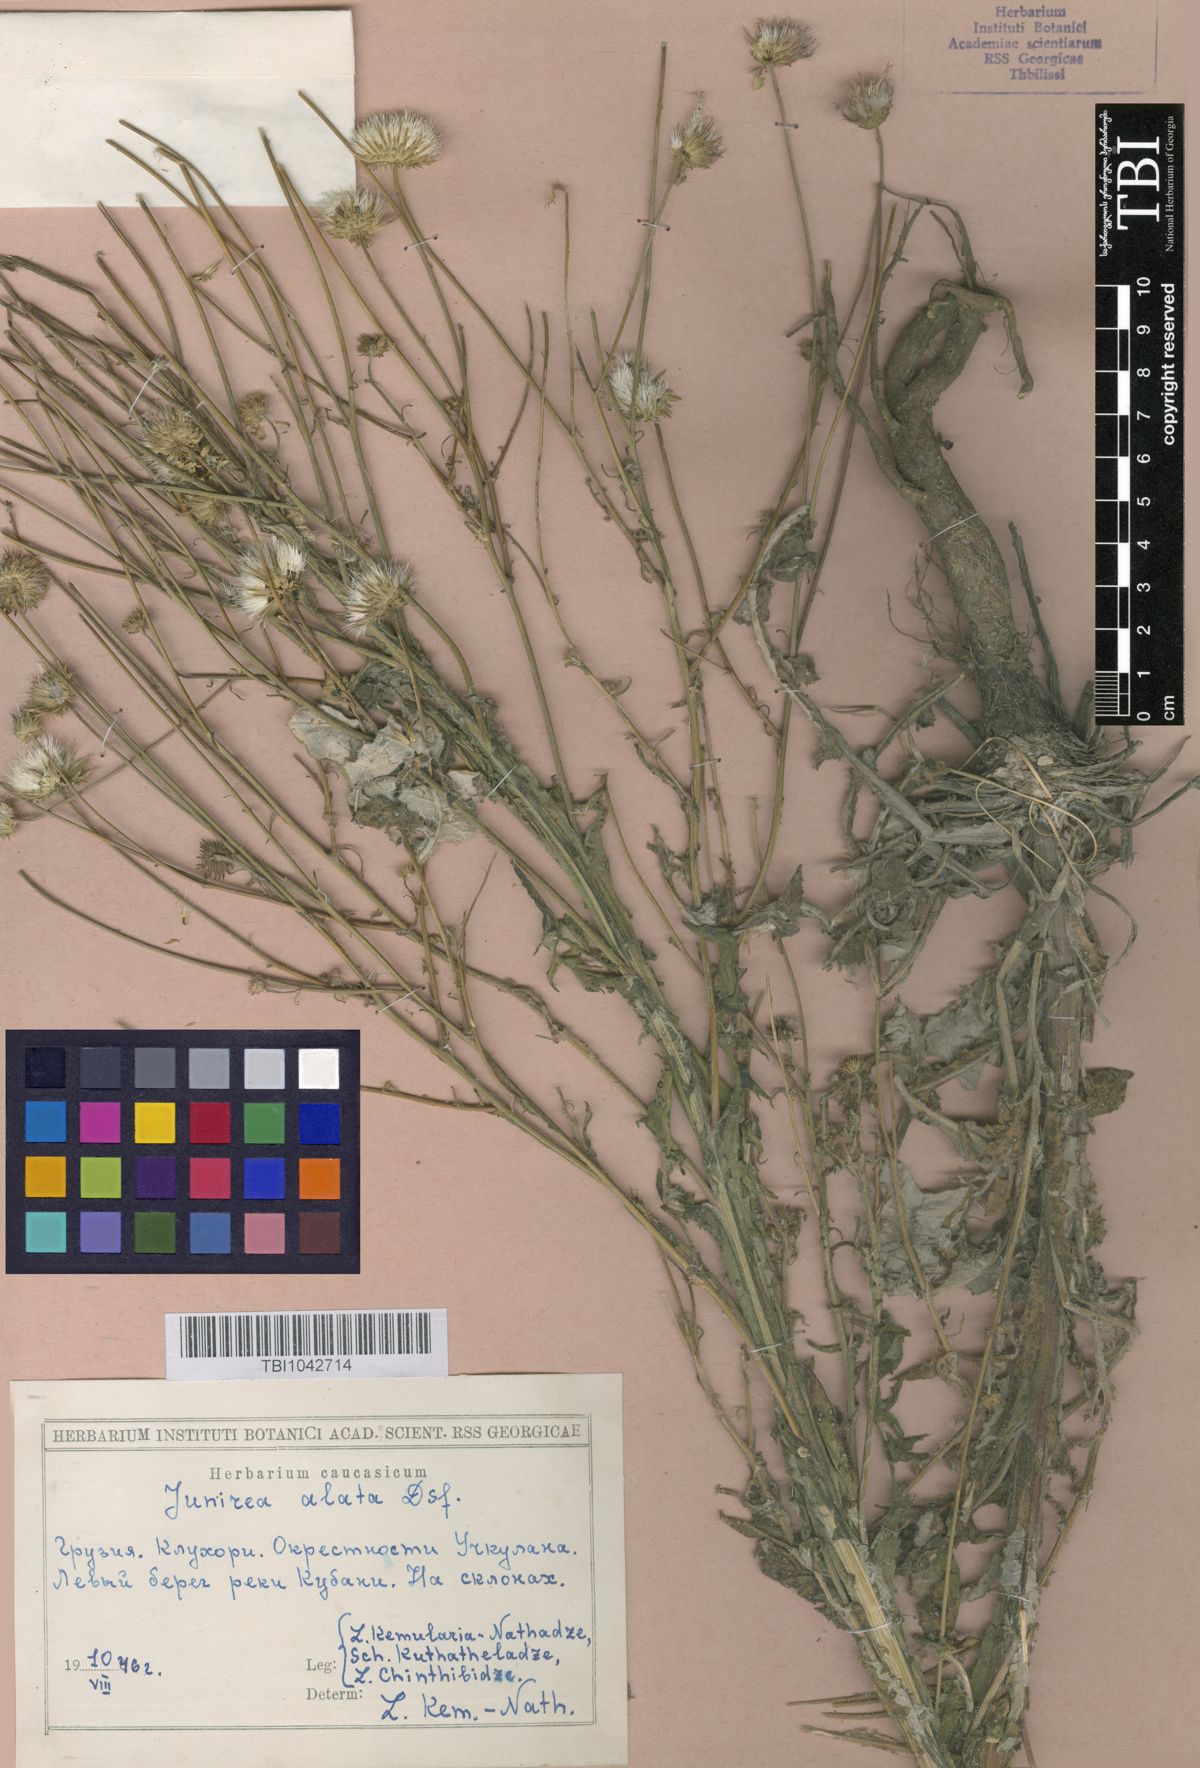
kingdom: Plantae
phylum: Tracheophyta
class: Magnoliopsida
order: Asterales
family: Asteraceae
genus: Jurinea
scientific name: Jurinea alata
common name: Winged jurinea
